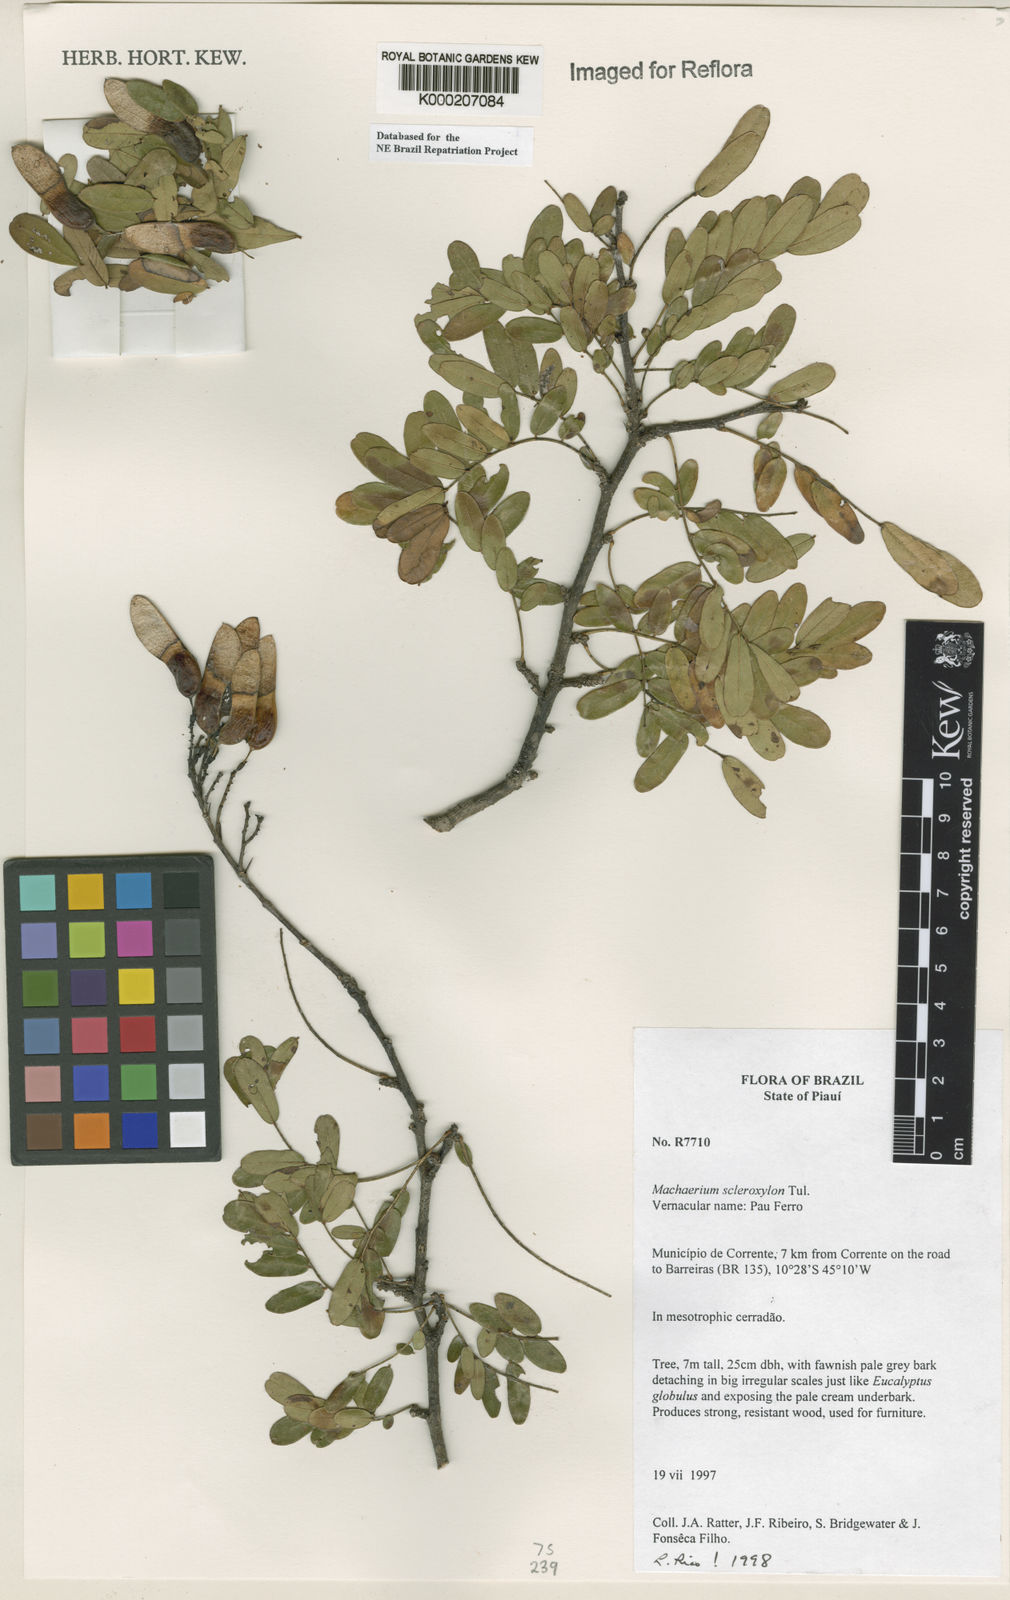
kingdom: Plantae
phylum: Tracheophyta
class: Magnoliopsida
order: Fabales
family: Fabaceae
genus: Machaerium
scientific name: Machaerium scleroxylon
